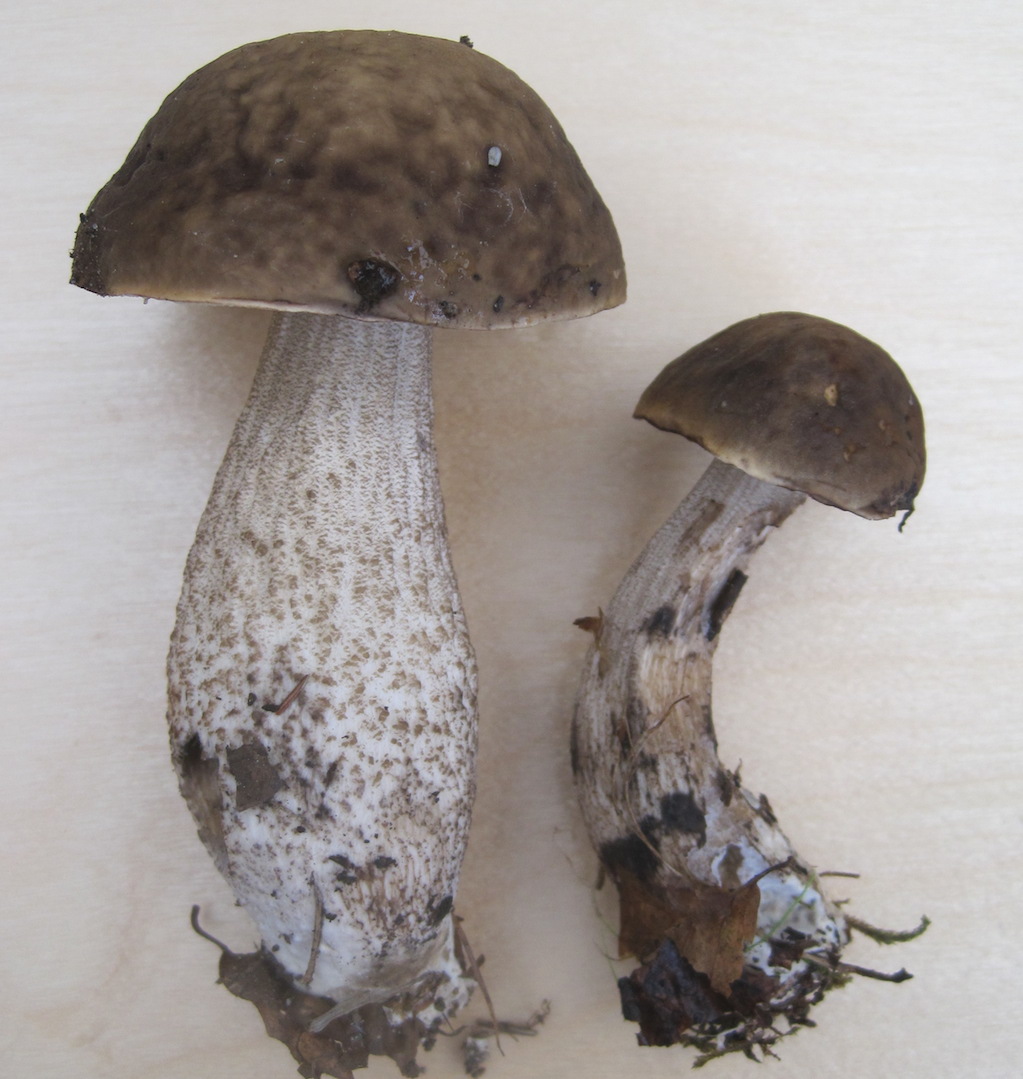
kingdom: Fungi
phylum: Basidiomycota
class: Agaricomycetes
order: Boletales
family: Boletaceae
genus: Leccinellum
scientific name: Leccinellum pseudoscabrum
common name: avnbøg-skælrørhat
